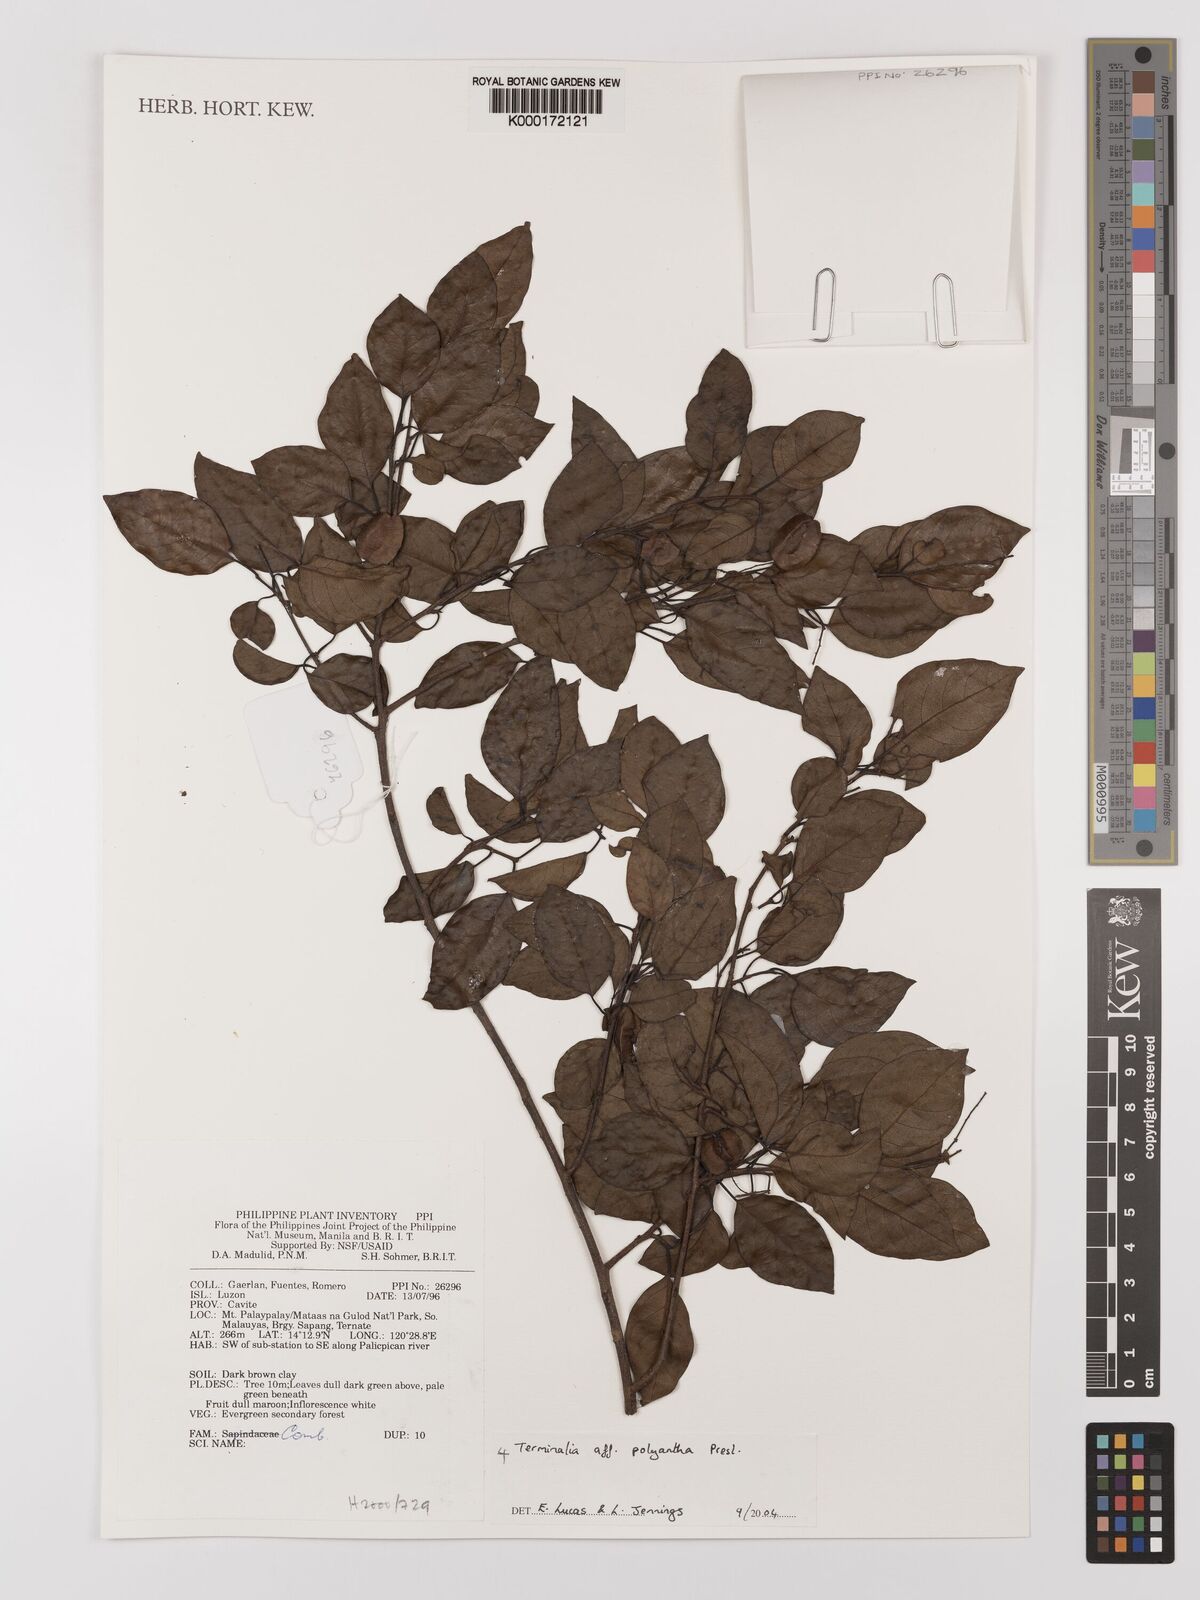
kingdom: Plantae
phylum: Tracheophyta
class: Magnoliopsida
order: Myrtales
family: Combretaceae
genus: Terminalia
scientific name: Terminalia polyantha
